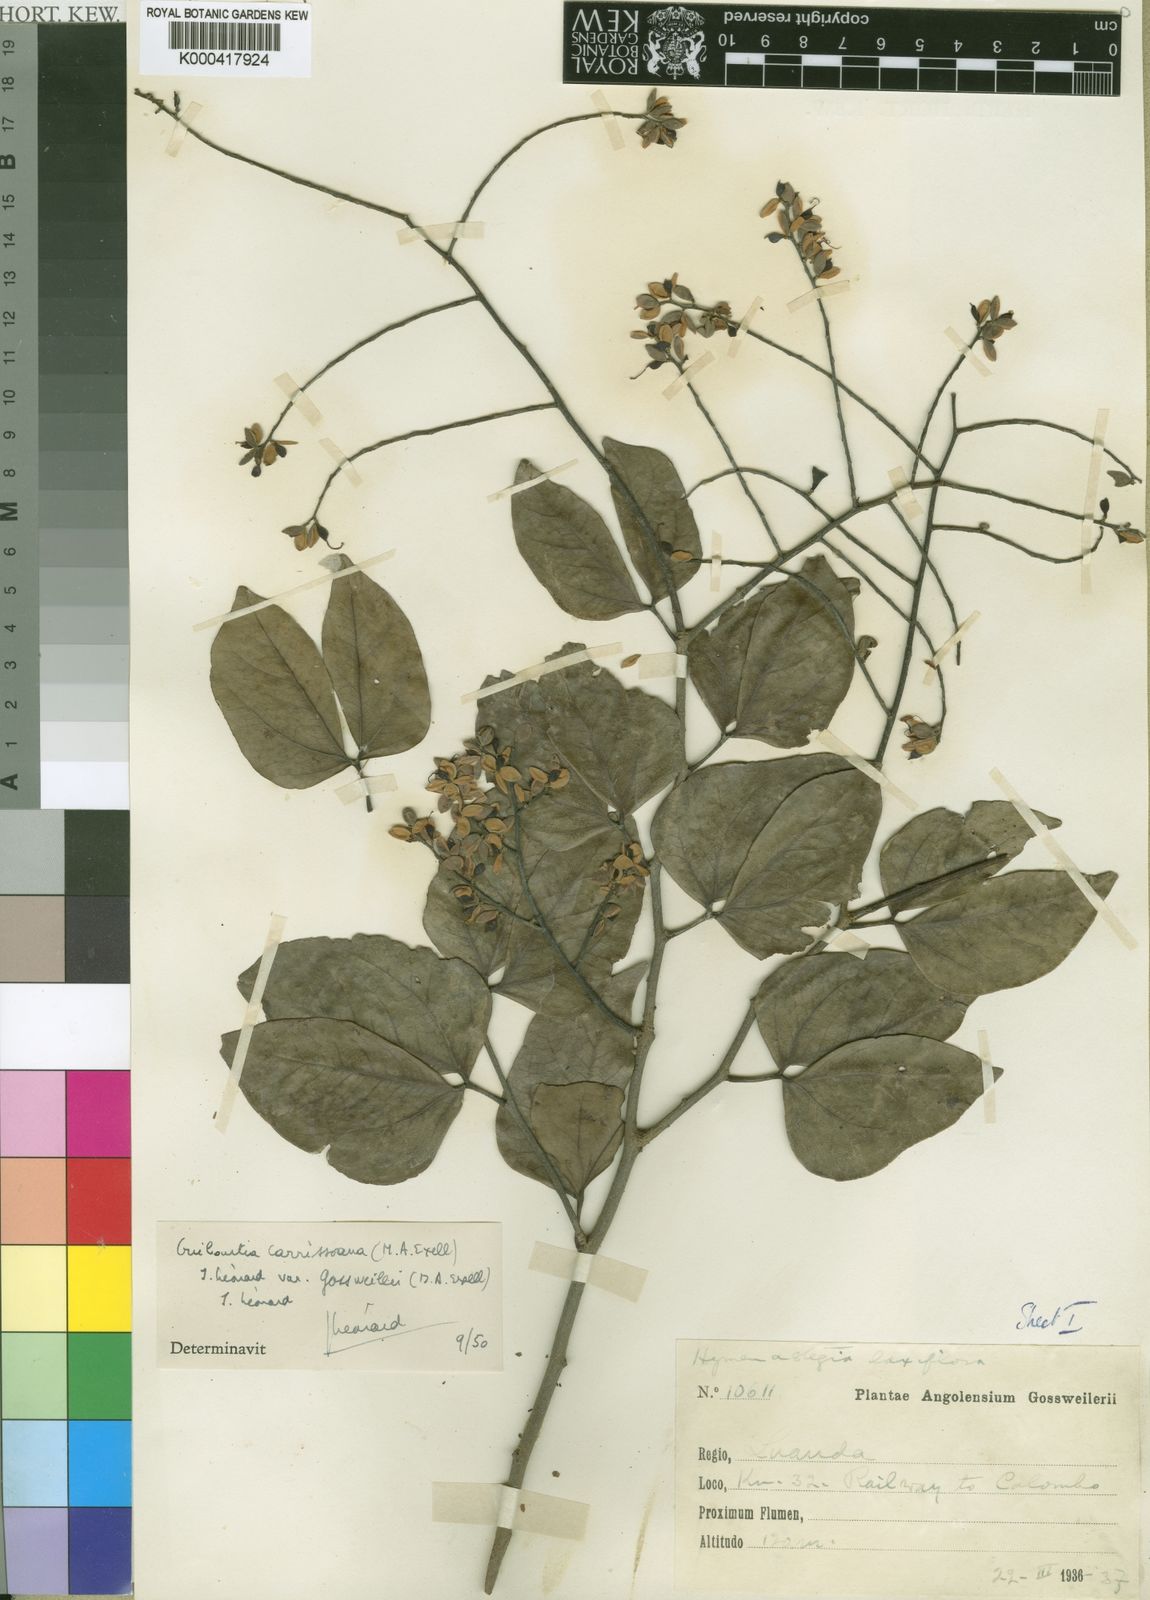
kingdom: Plantae
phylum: Tracheophyta
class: Magnoliopsida
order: Fabales
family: Fabaceae
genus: Guibourtia
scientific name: Guibourtia
